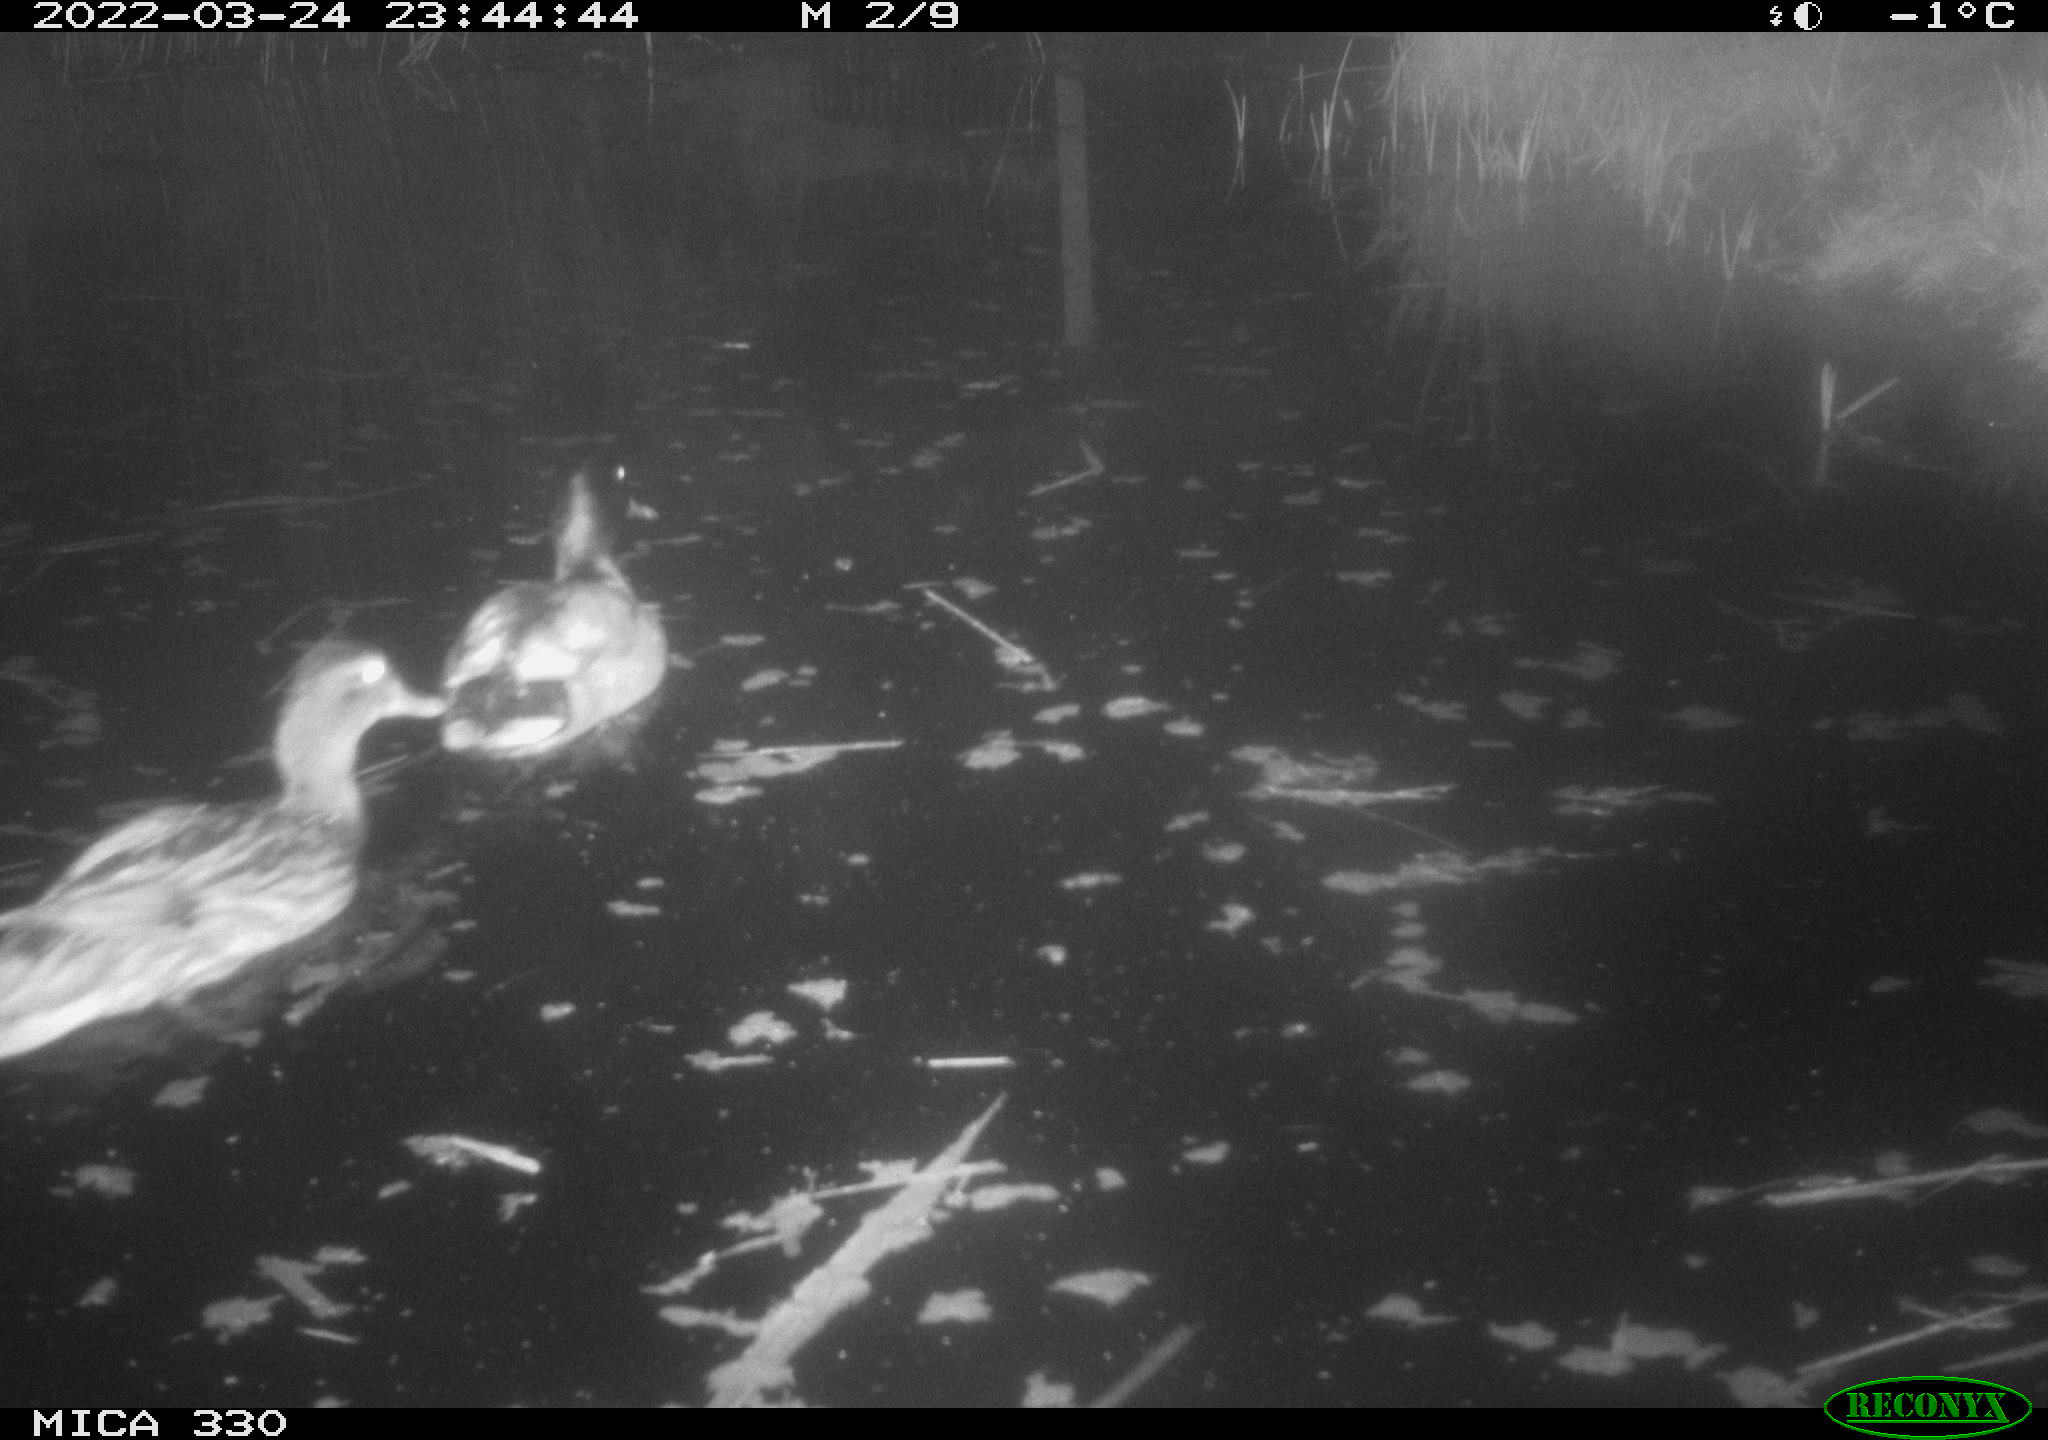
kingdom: Animalia
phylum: Chordata
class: Aves
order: Anseriformes
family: Anatidae
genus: Anas
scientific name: Anas platyrhynchos
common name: Mallard
